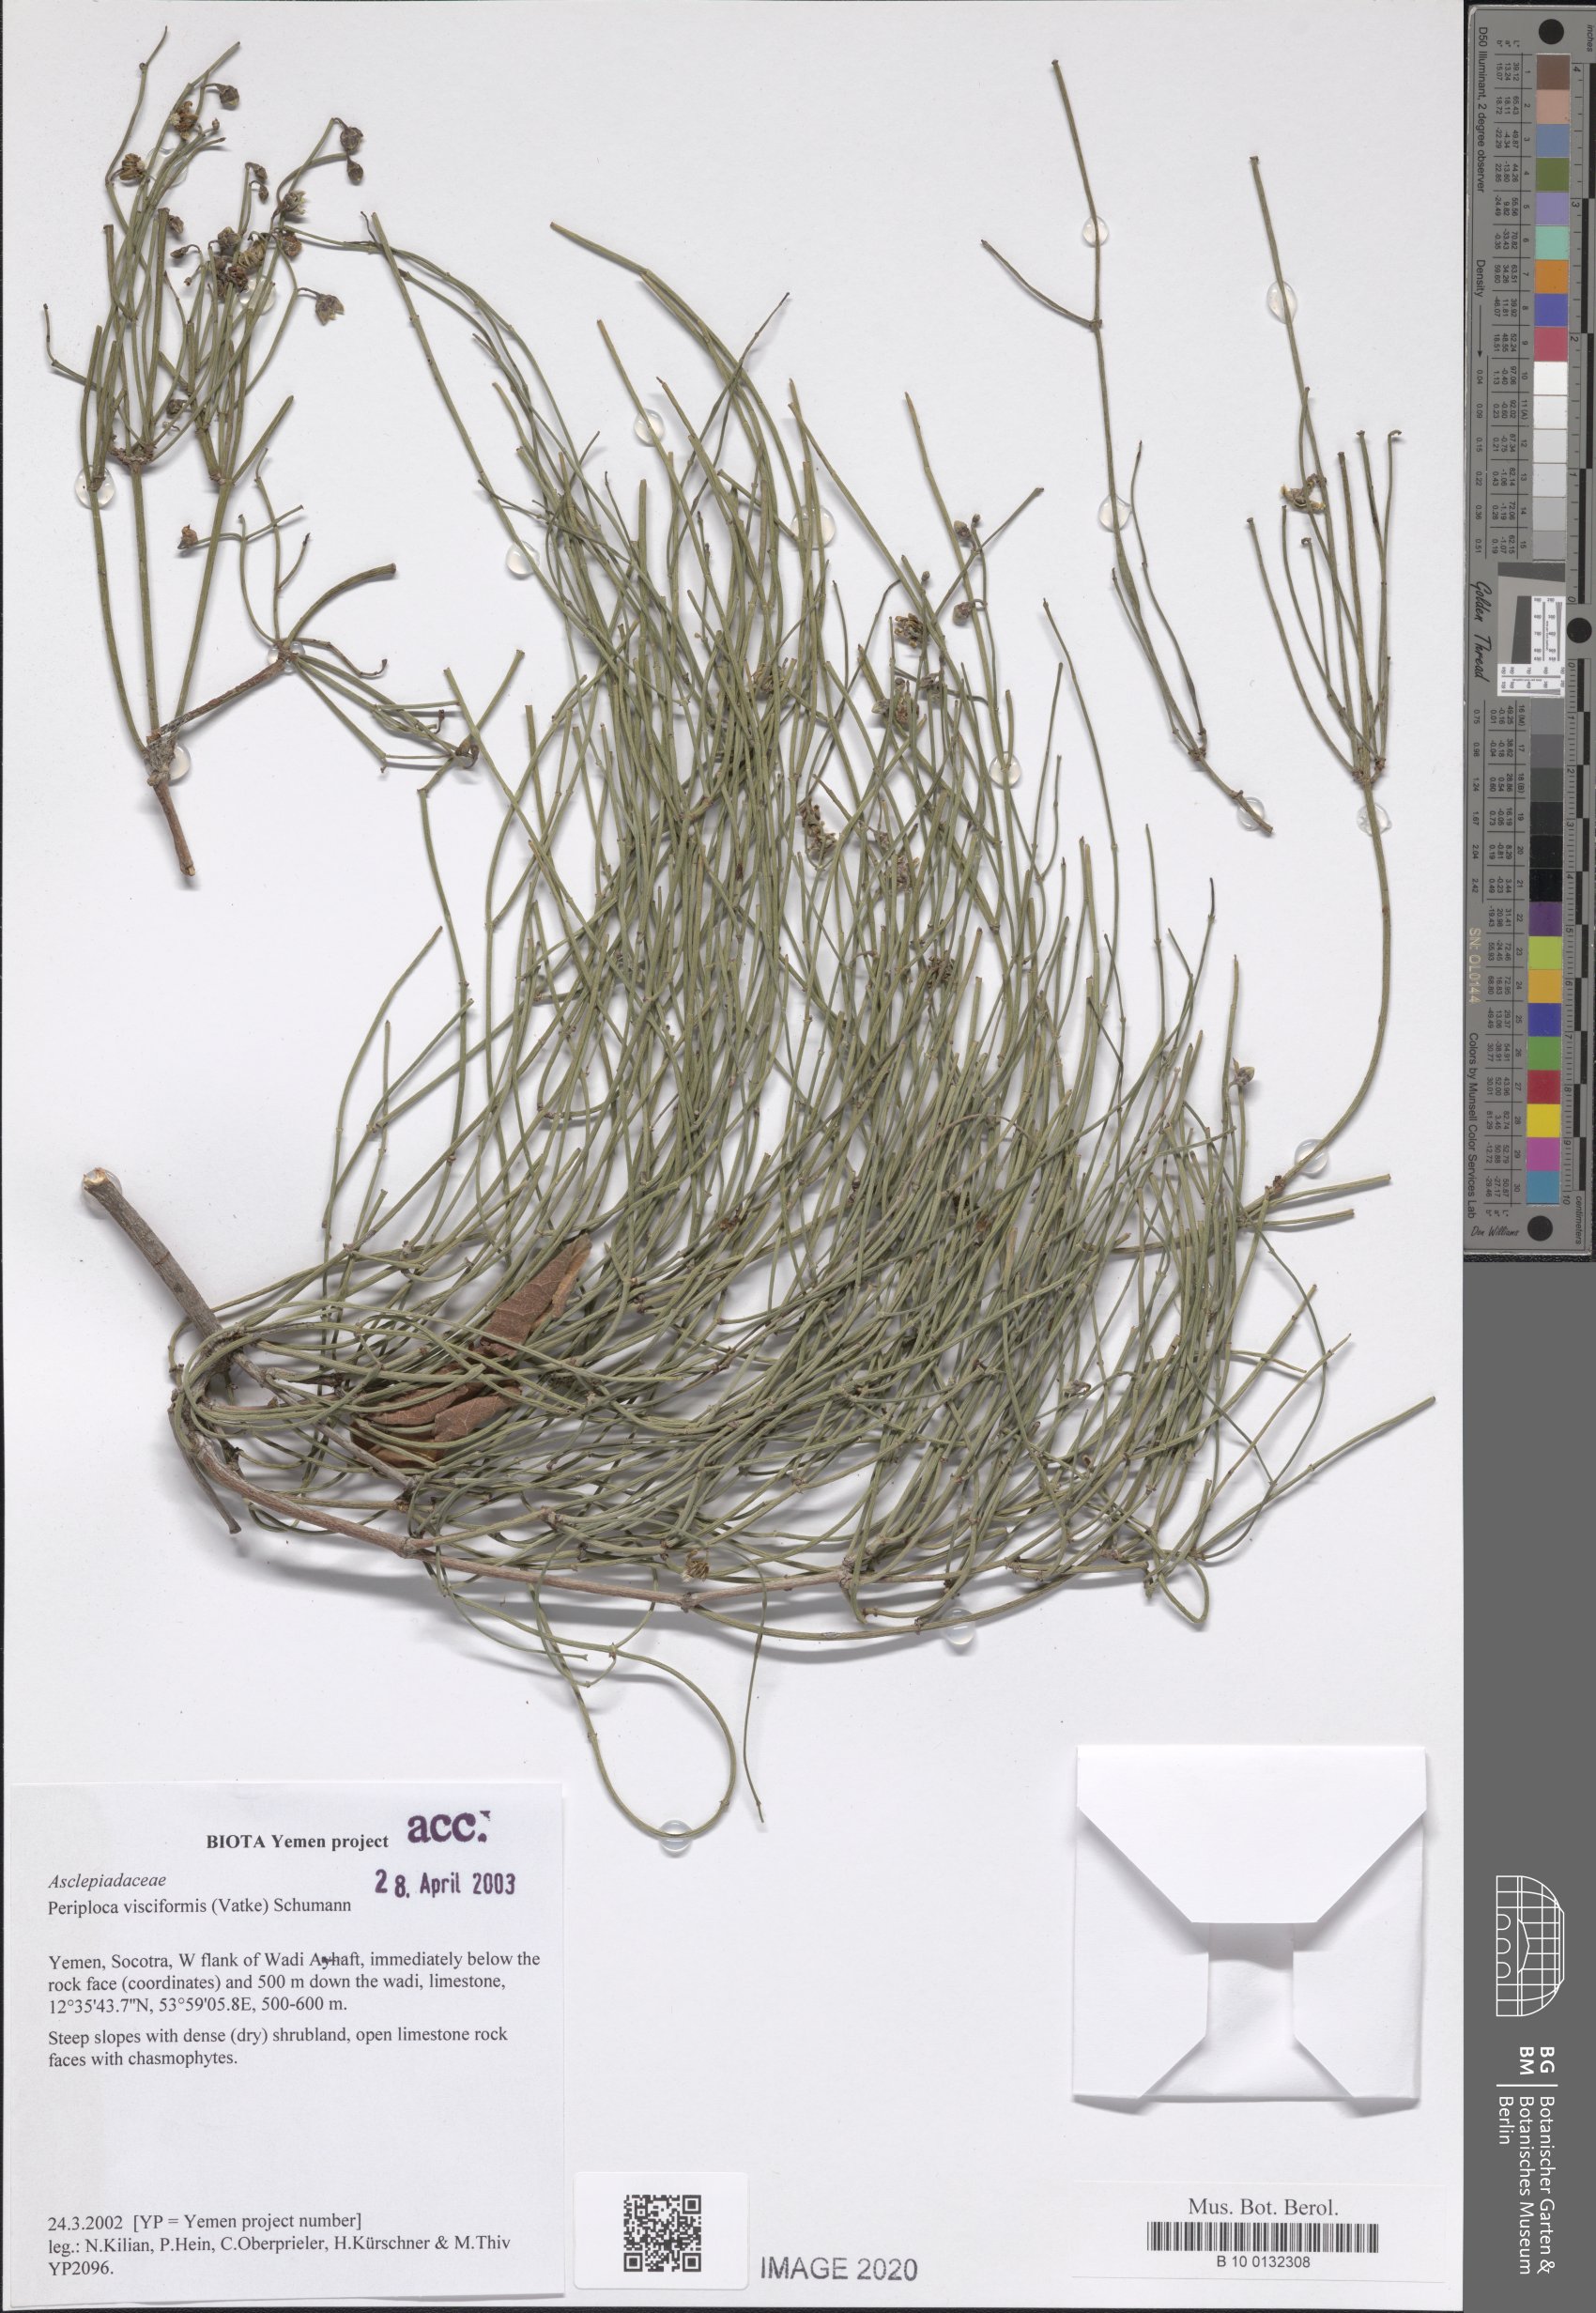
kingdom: Plantae
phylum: Tracheophyta
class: Magnoliopsida
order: Gentianales
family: Apocynaceae
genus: Periploca
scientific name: Periploca visciformis
